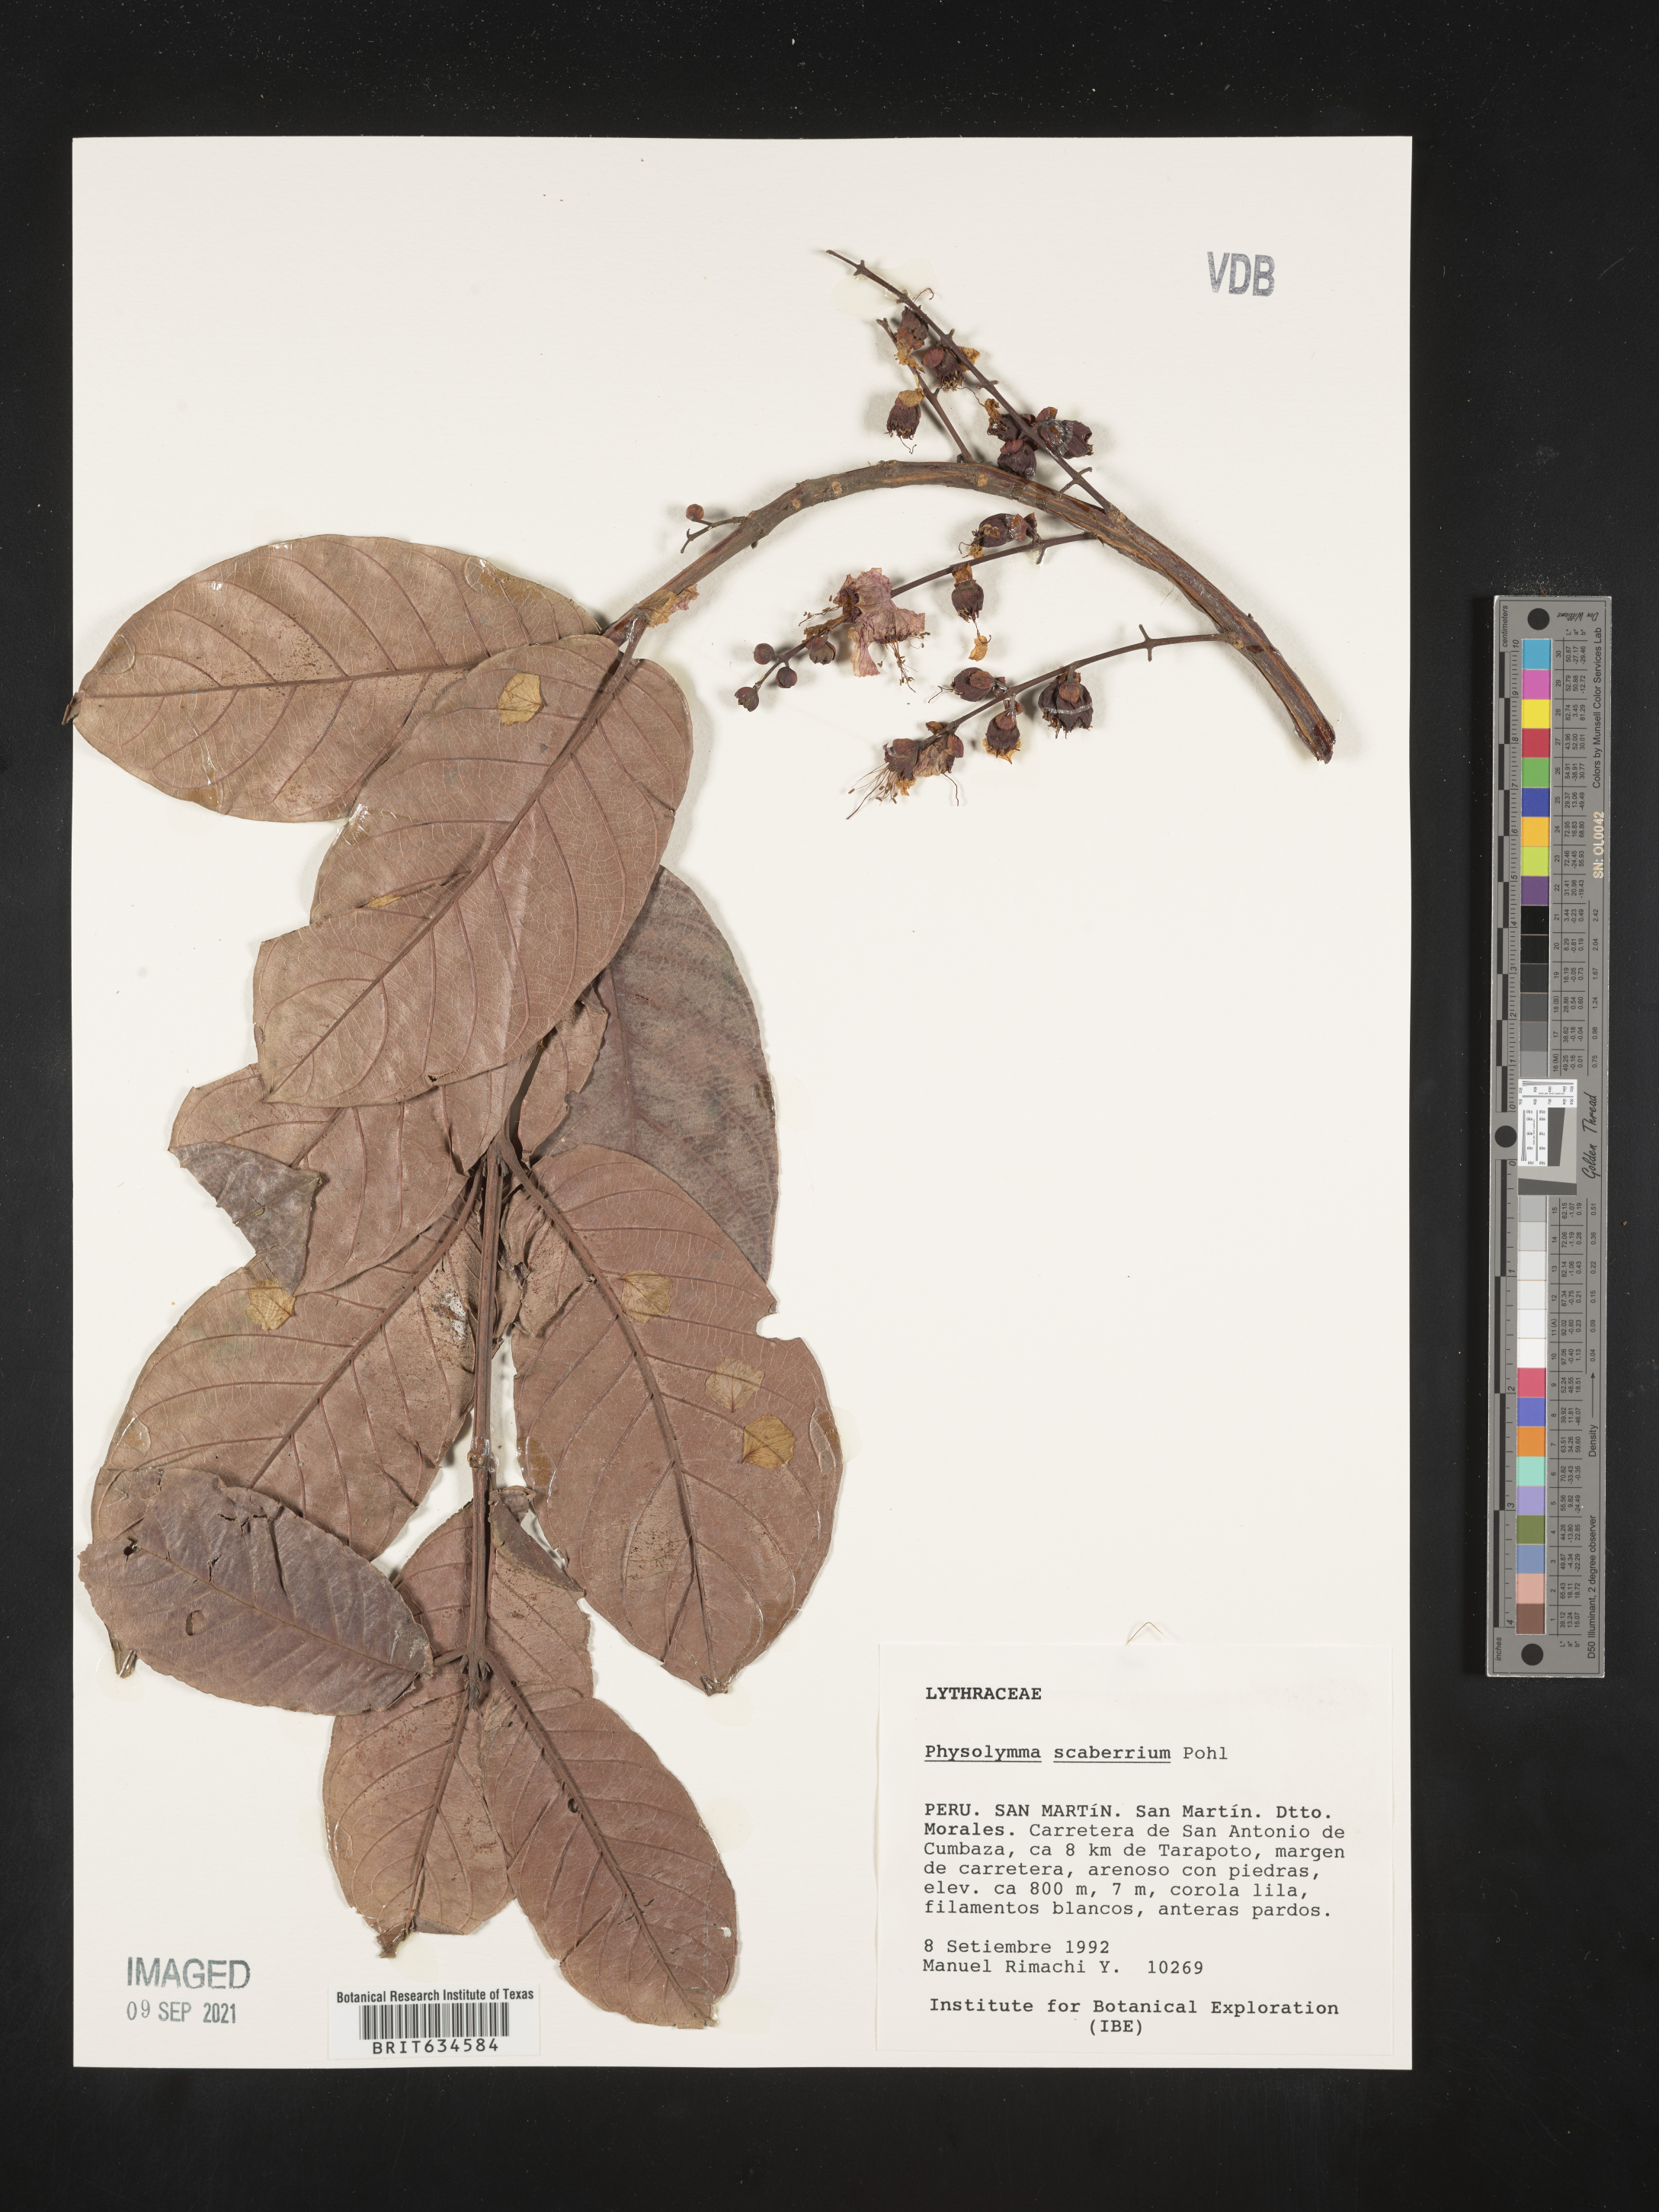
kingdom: Plantae
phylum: Tracheophyta
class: Magnoliopsida
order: Myrtales
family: Lythraceae
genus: Physocalymma
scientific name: Physocalymma
